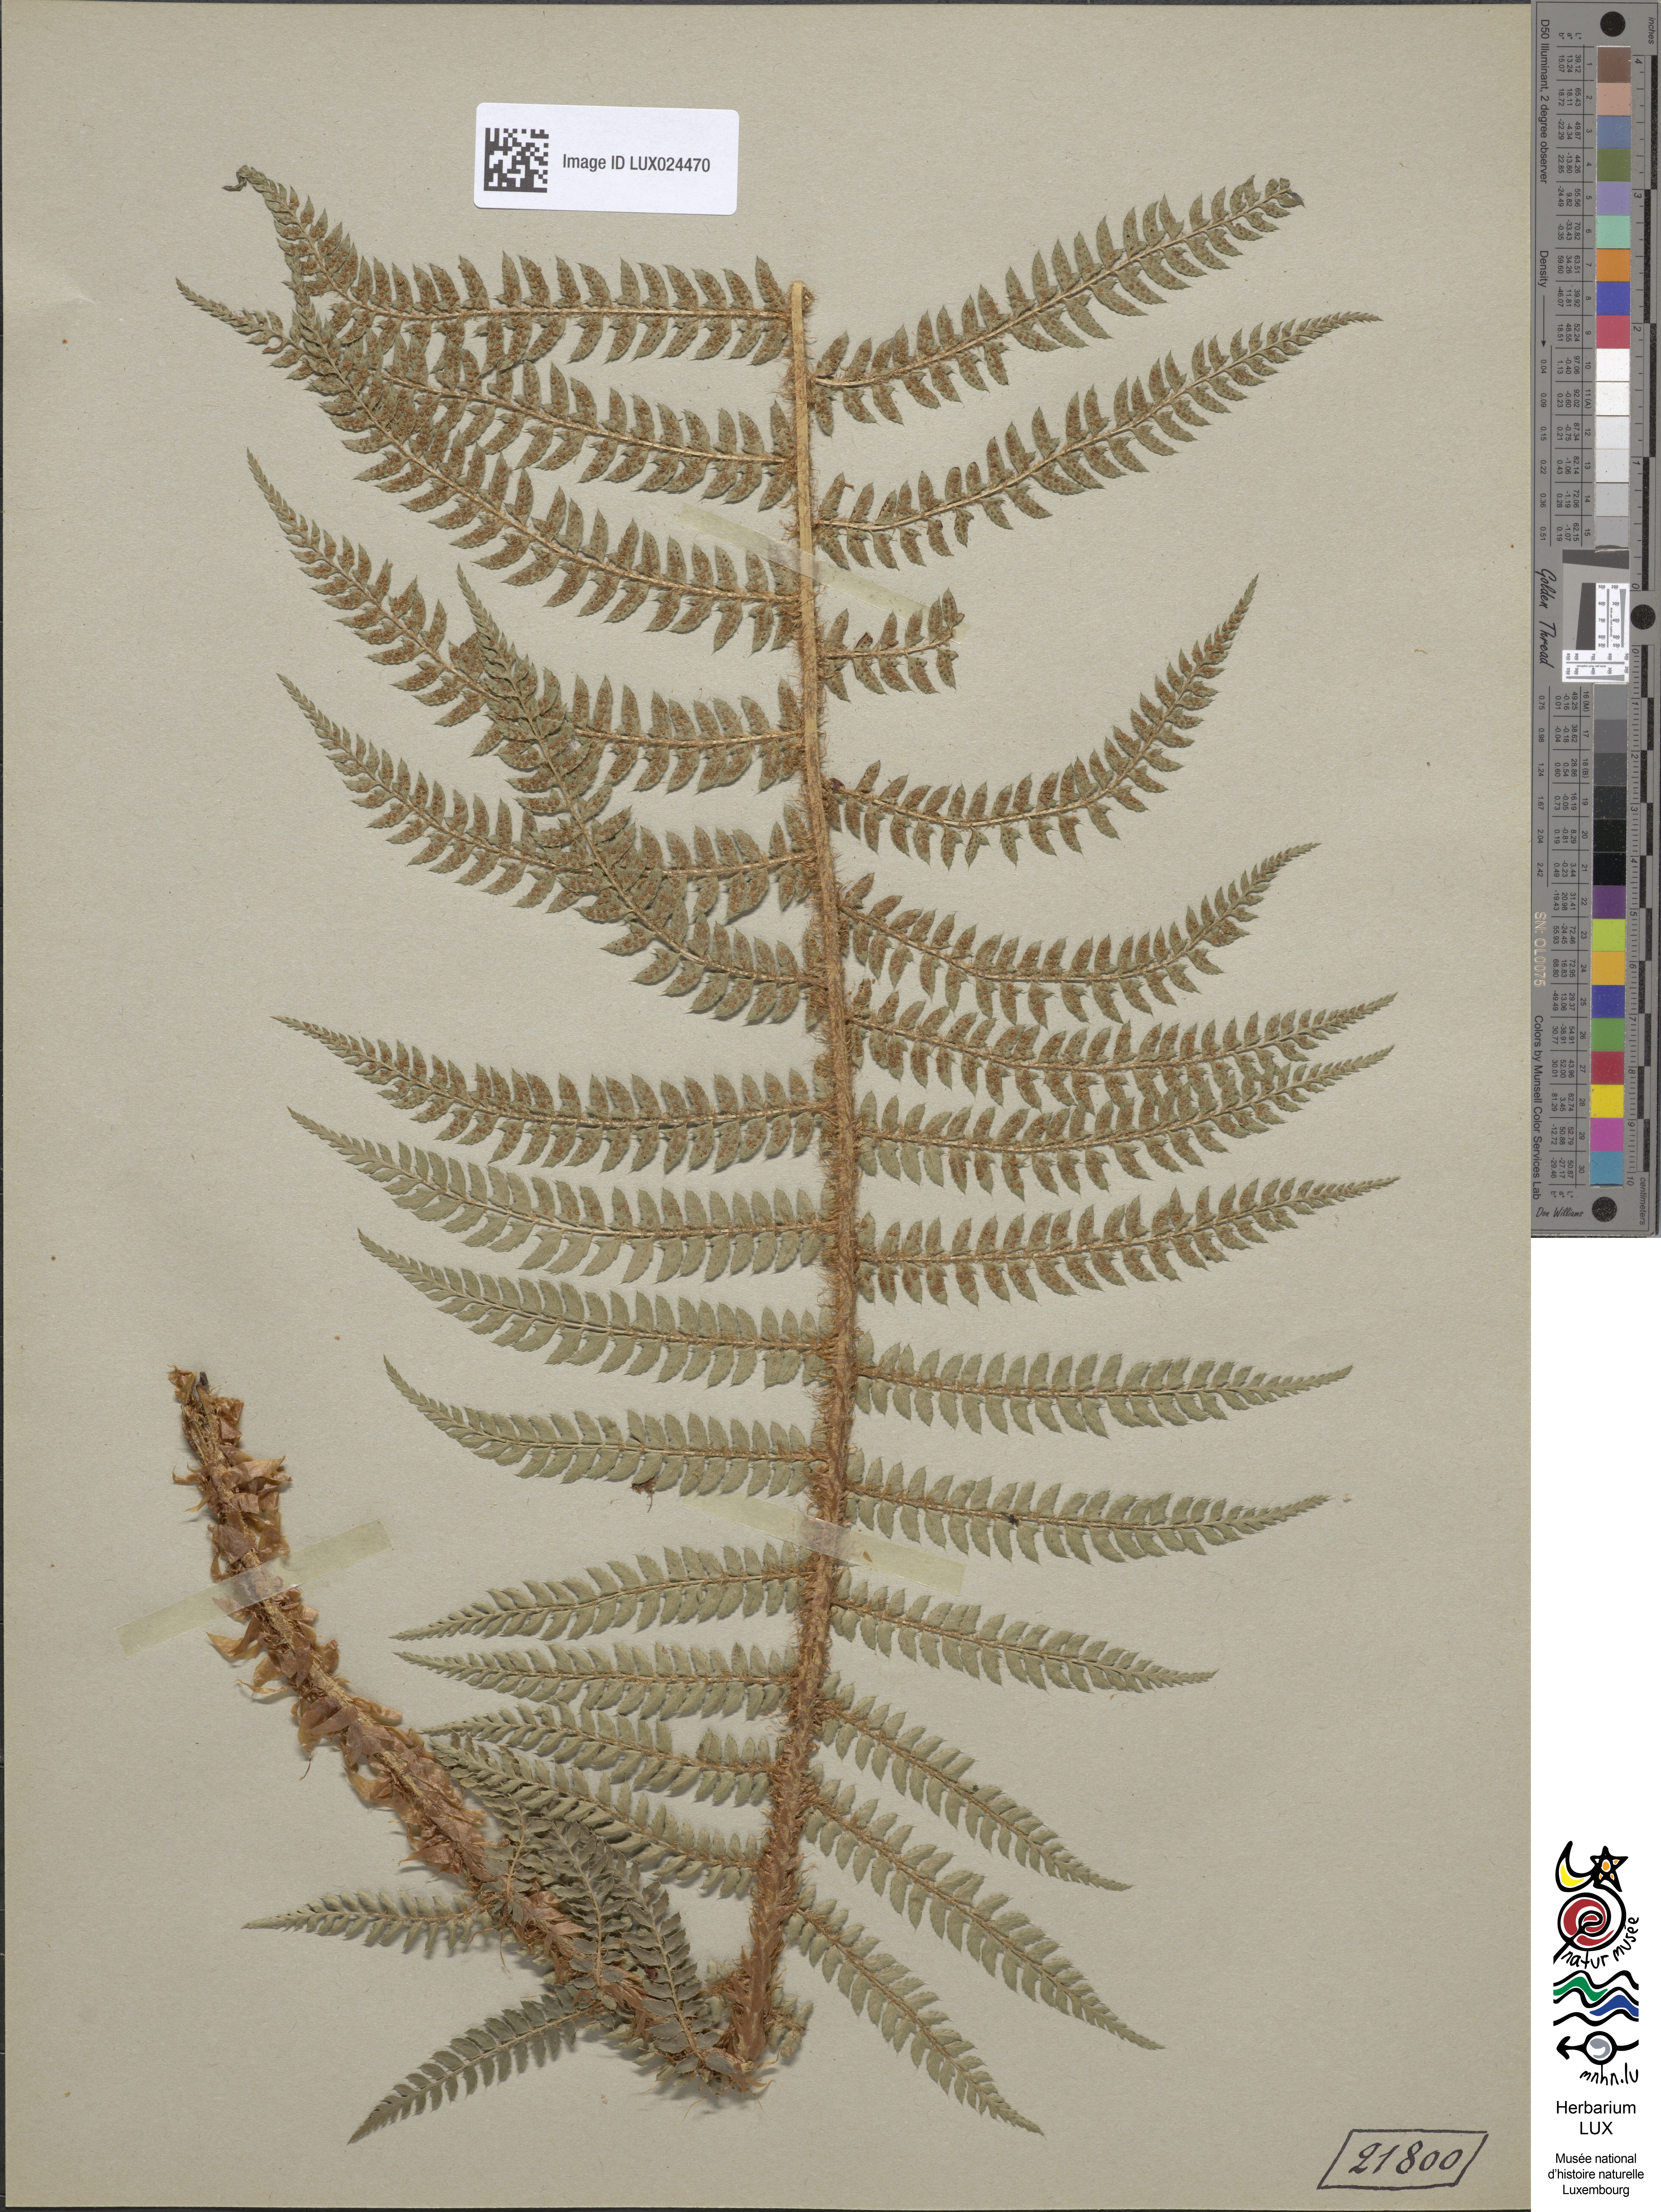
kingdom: Plantae
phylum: Tracheophyta
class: Polypodiopsida
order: Polypodiales
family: Dryopteridaceae
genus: Polystichum
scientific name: Polystichum setiferum
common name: Soft shield-fern
